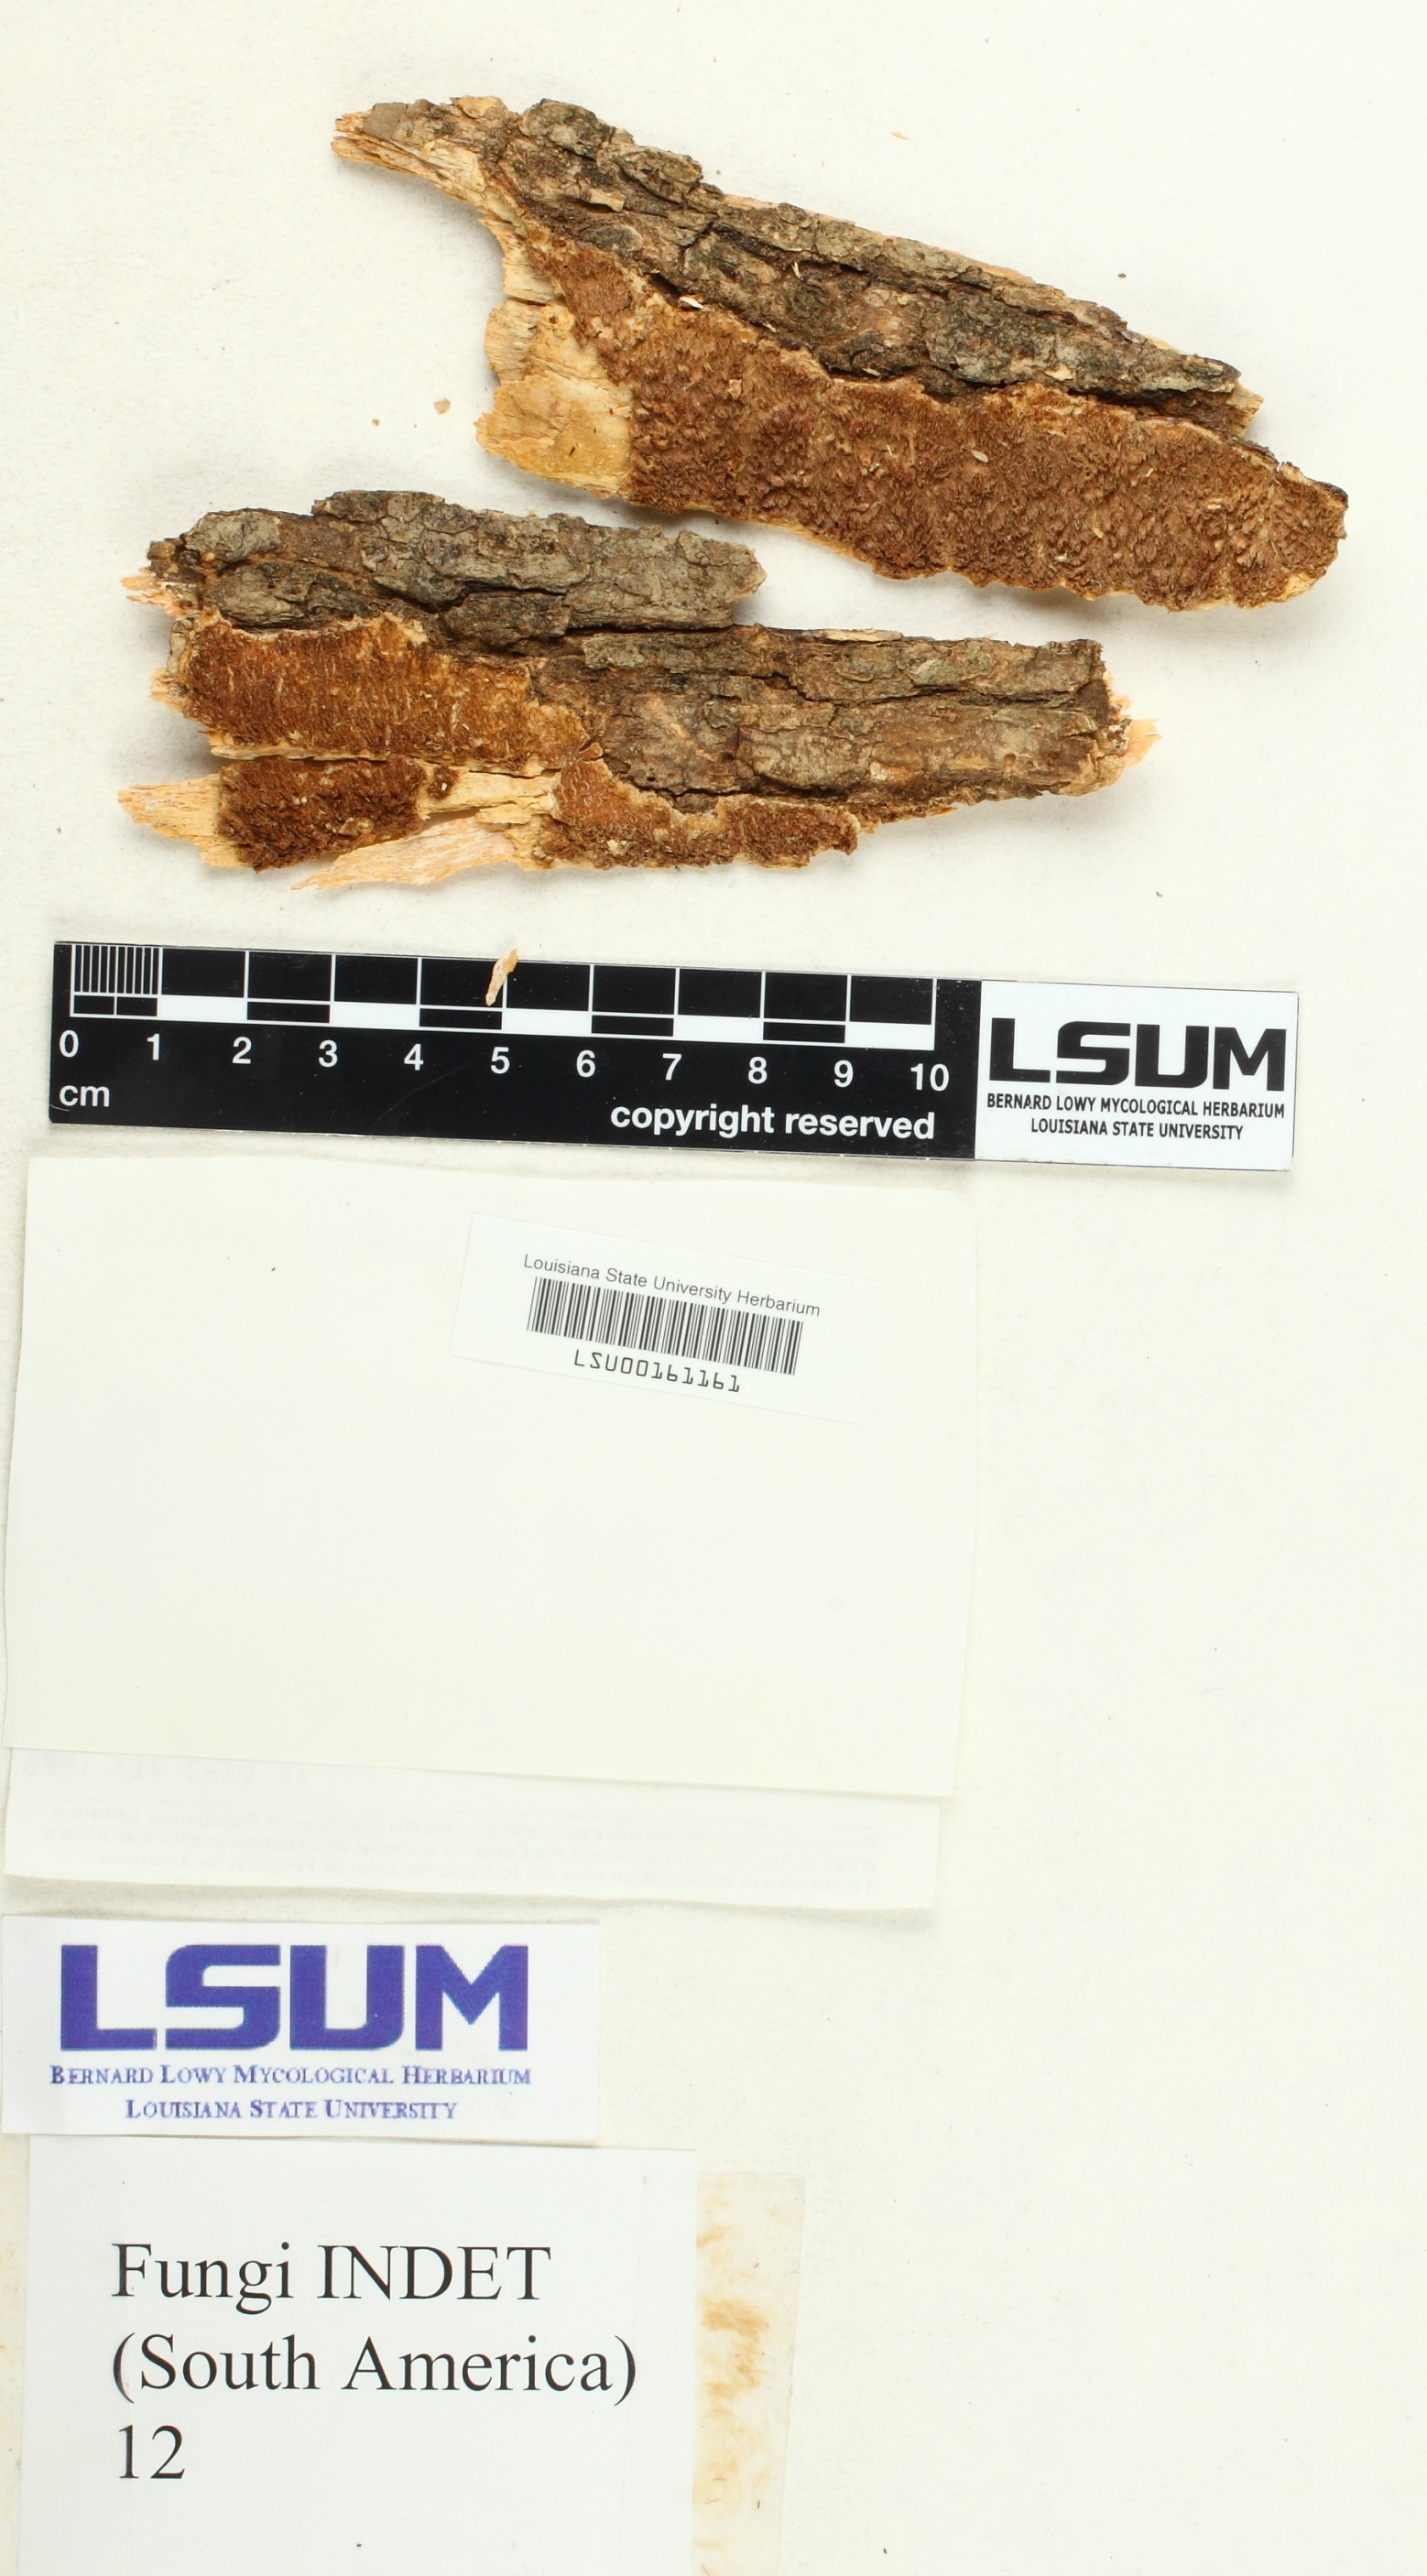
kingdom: Fungi
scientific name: Fungi
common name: Fungi
